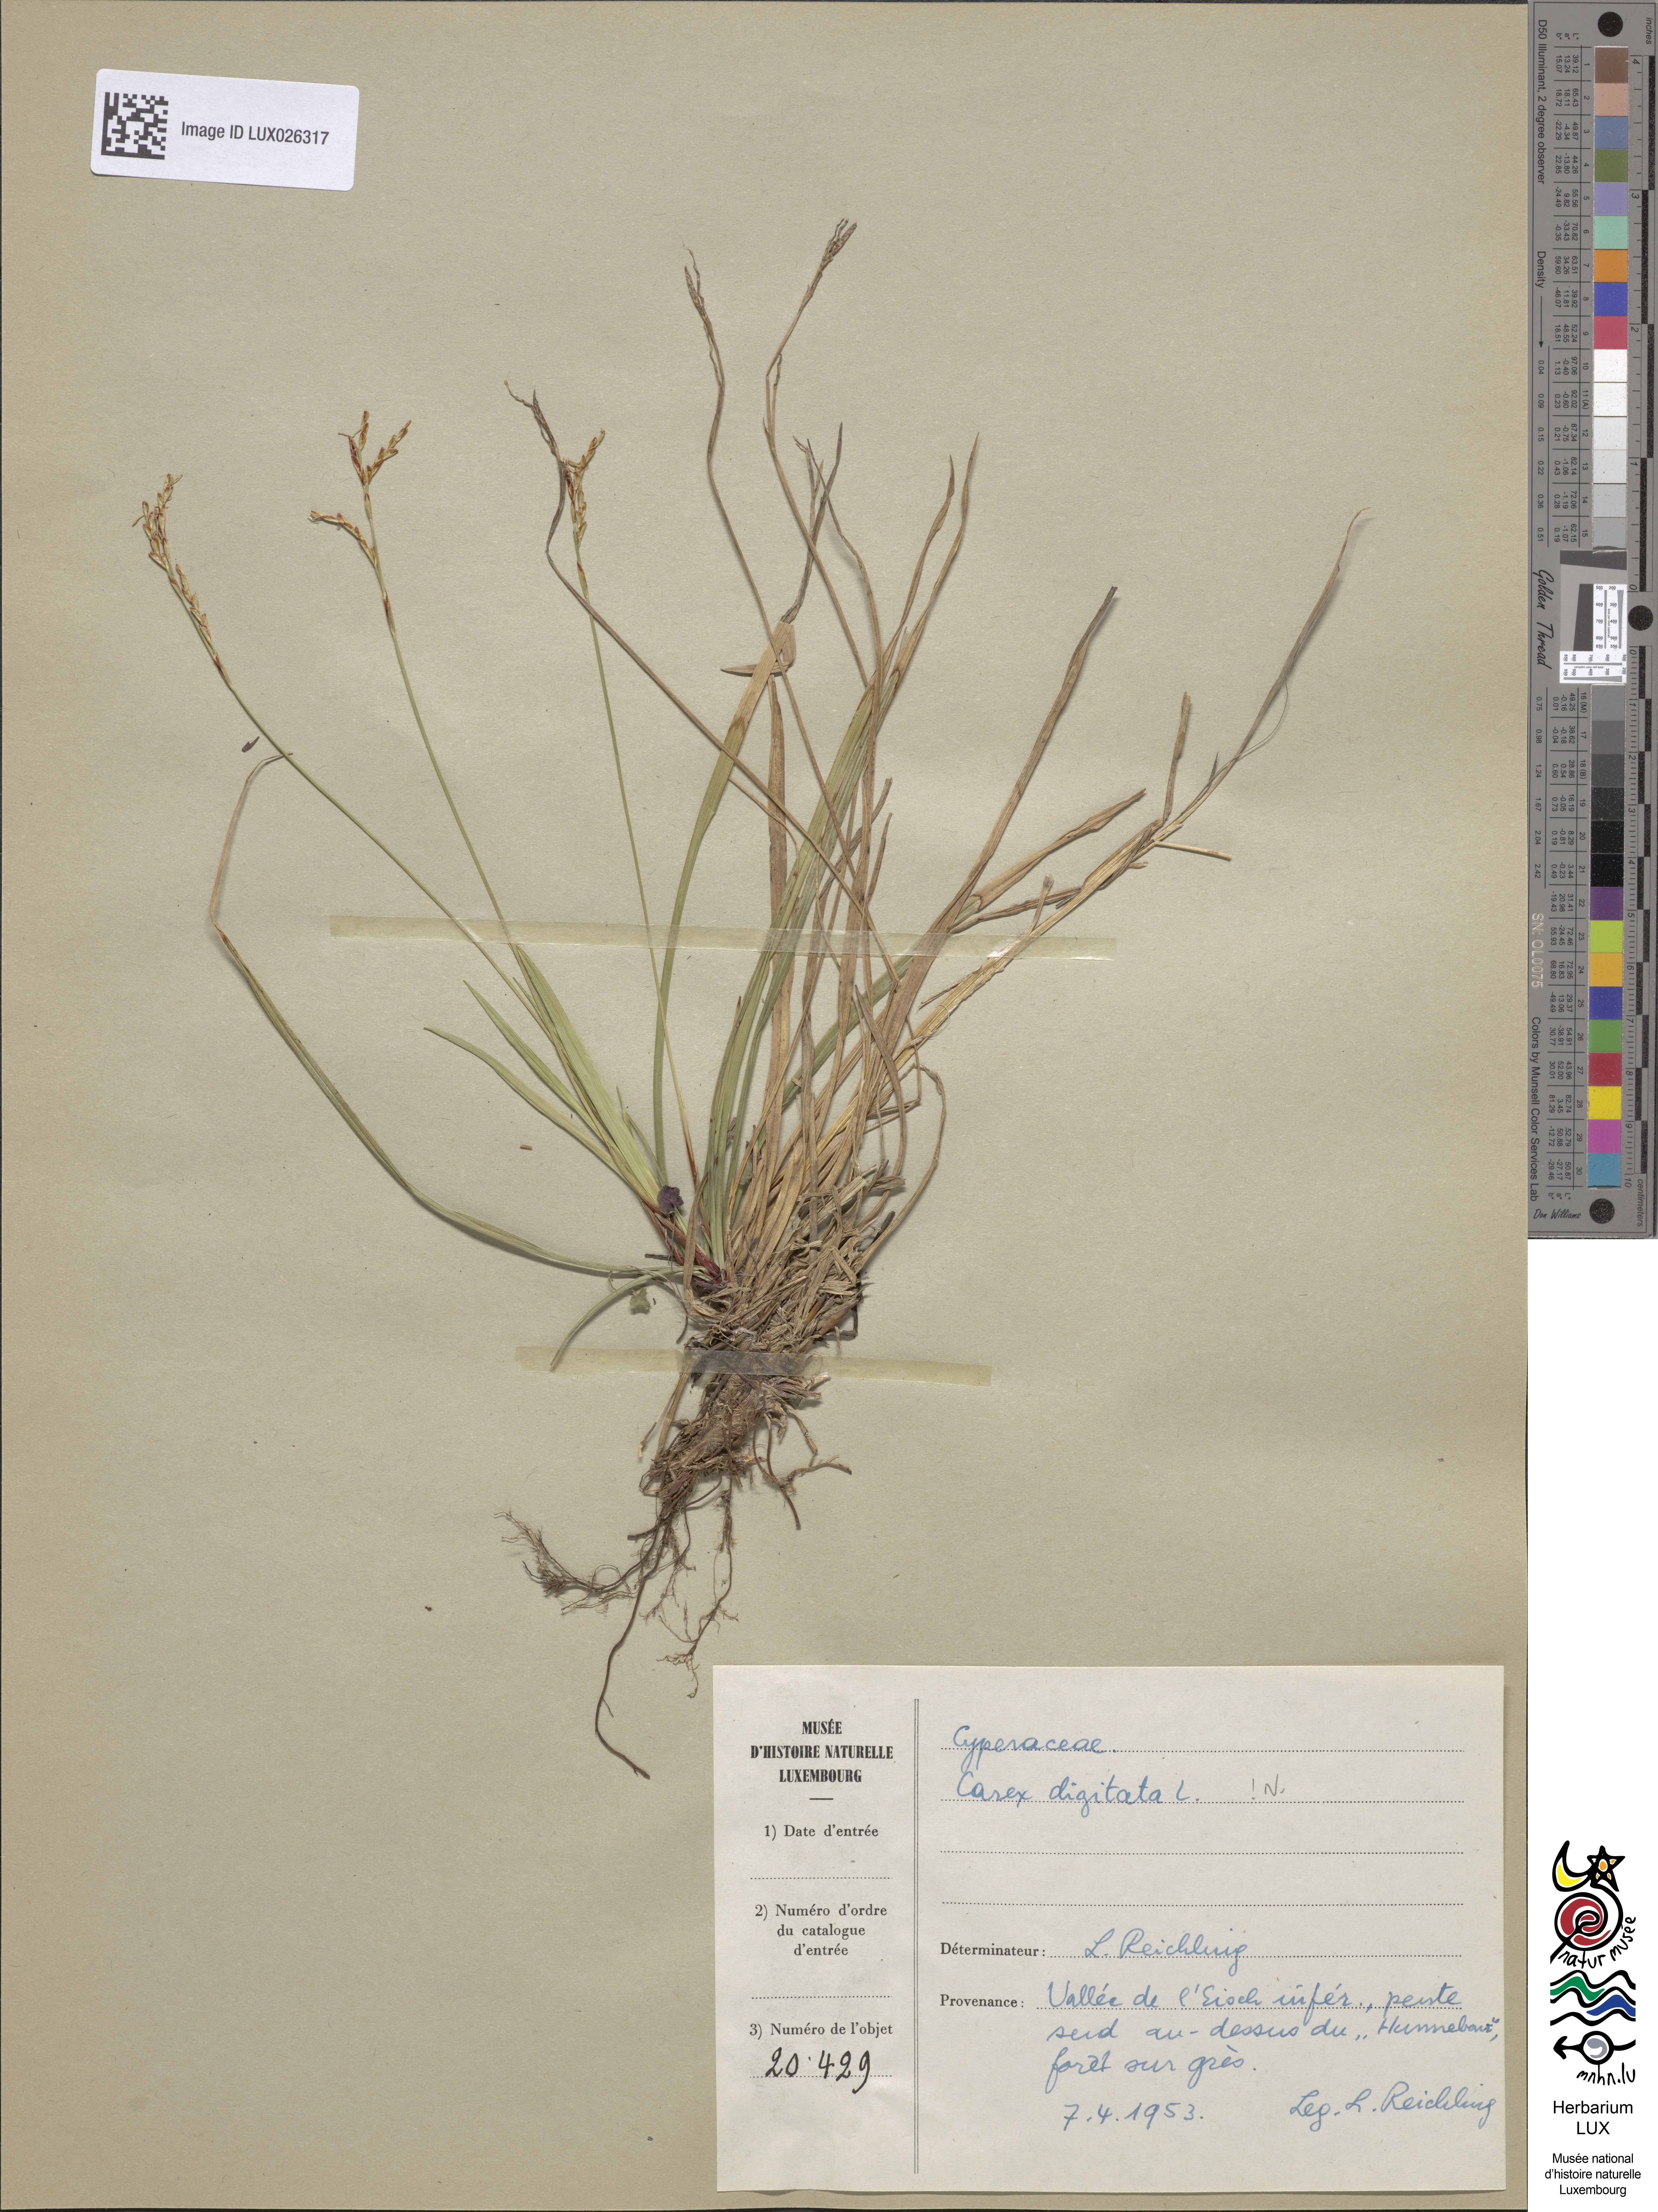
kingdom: Plantae
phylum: Tracheophyta
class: Liliopsida
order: Poales
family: Cyperaceae
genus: Carex
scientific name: Carex digitata
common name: Fingered sedge
